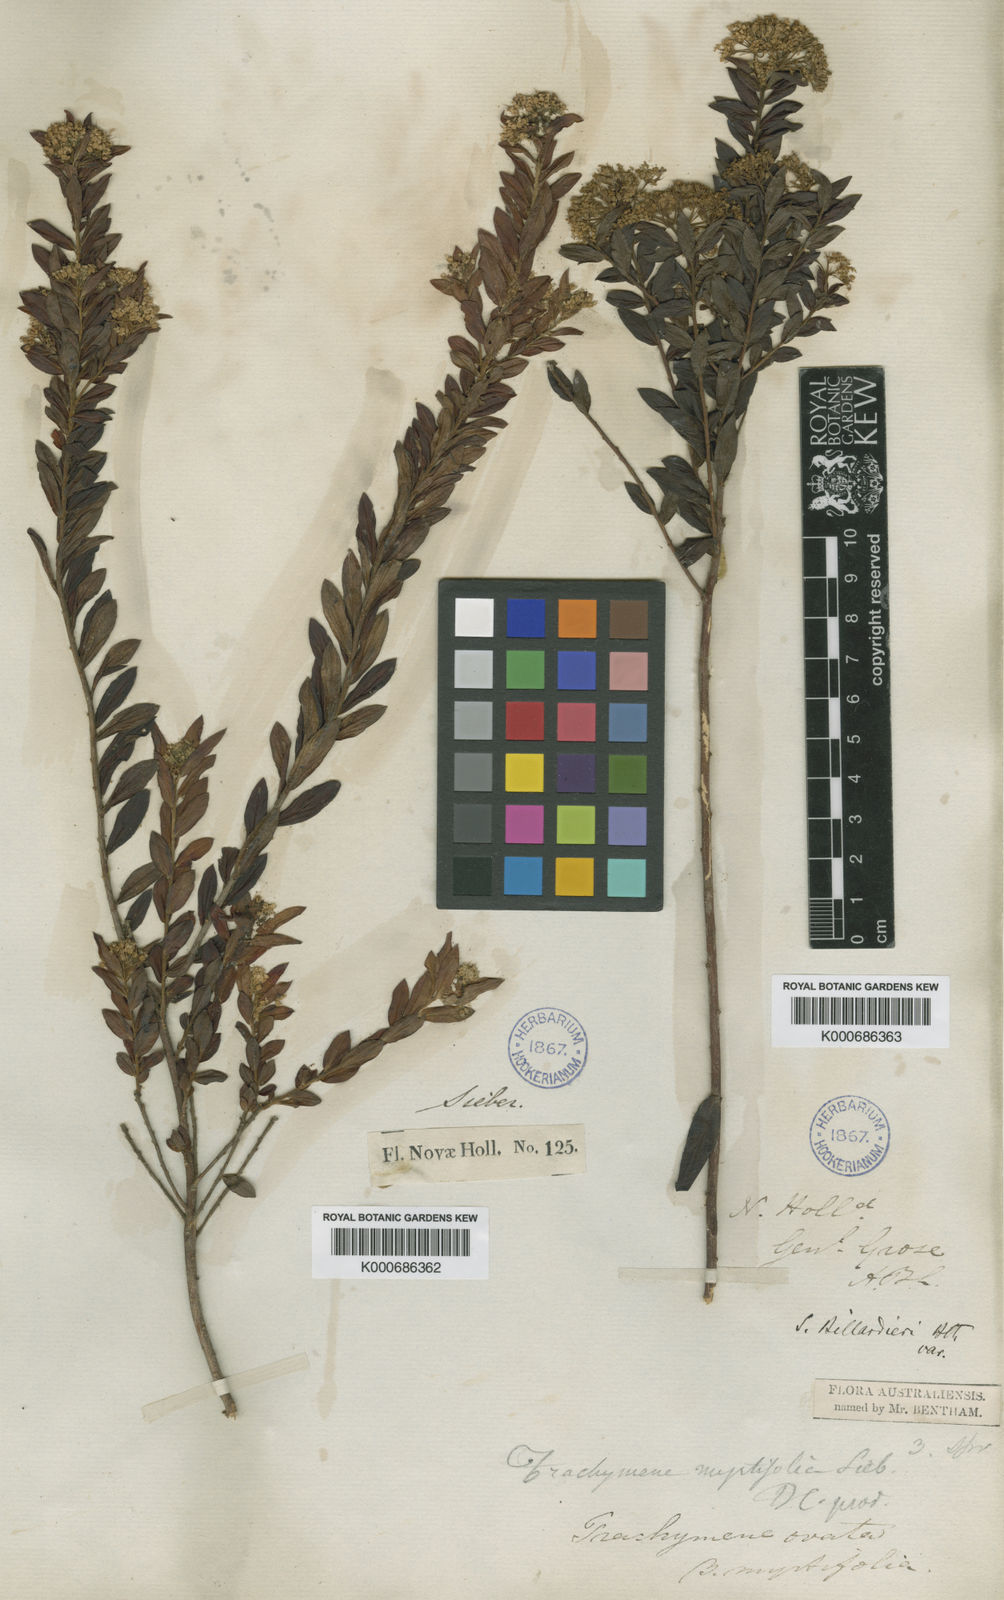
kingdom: Plantae
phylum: Tracheophyta
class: Magnoliopsida
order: Apiales
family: Apiaceae
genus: Platysace
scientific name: Platysace lanceolata
